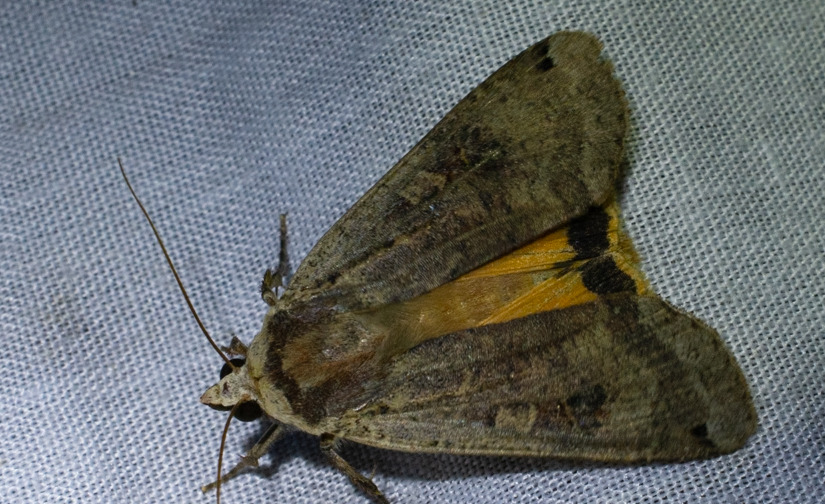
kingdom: Animalia
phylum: Arthropoda
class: Insecta
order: Lepidoptera
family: Noctuidae
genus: Noctua
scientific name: Noctua pronuba
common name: Stor smutugle
